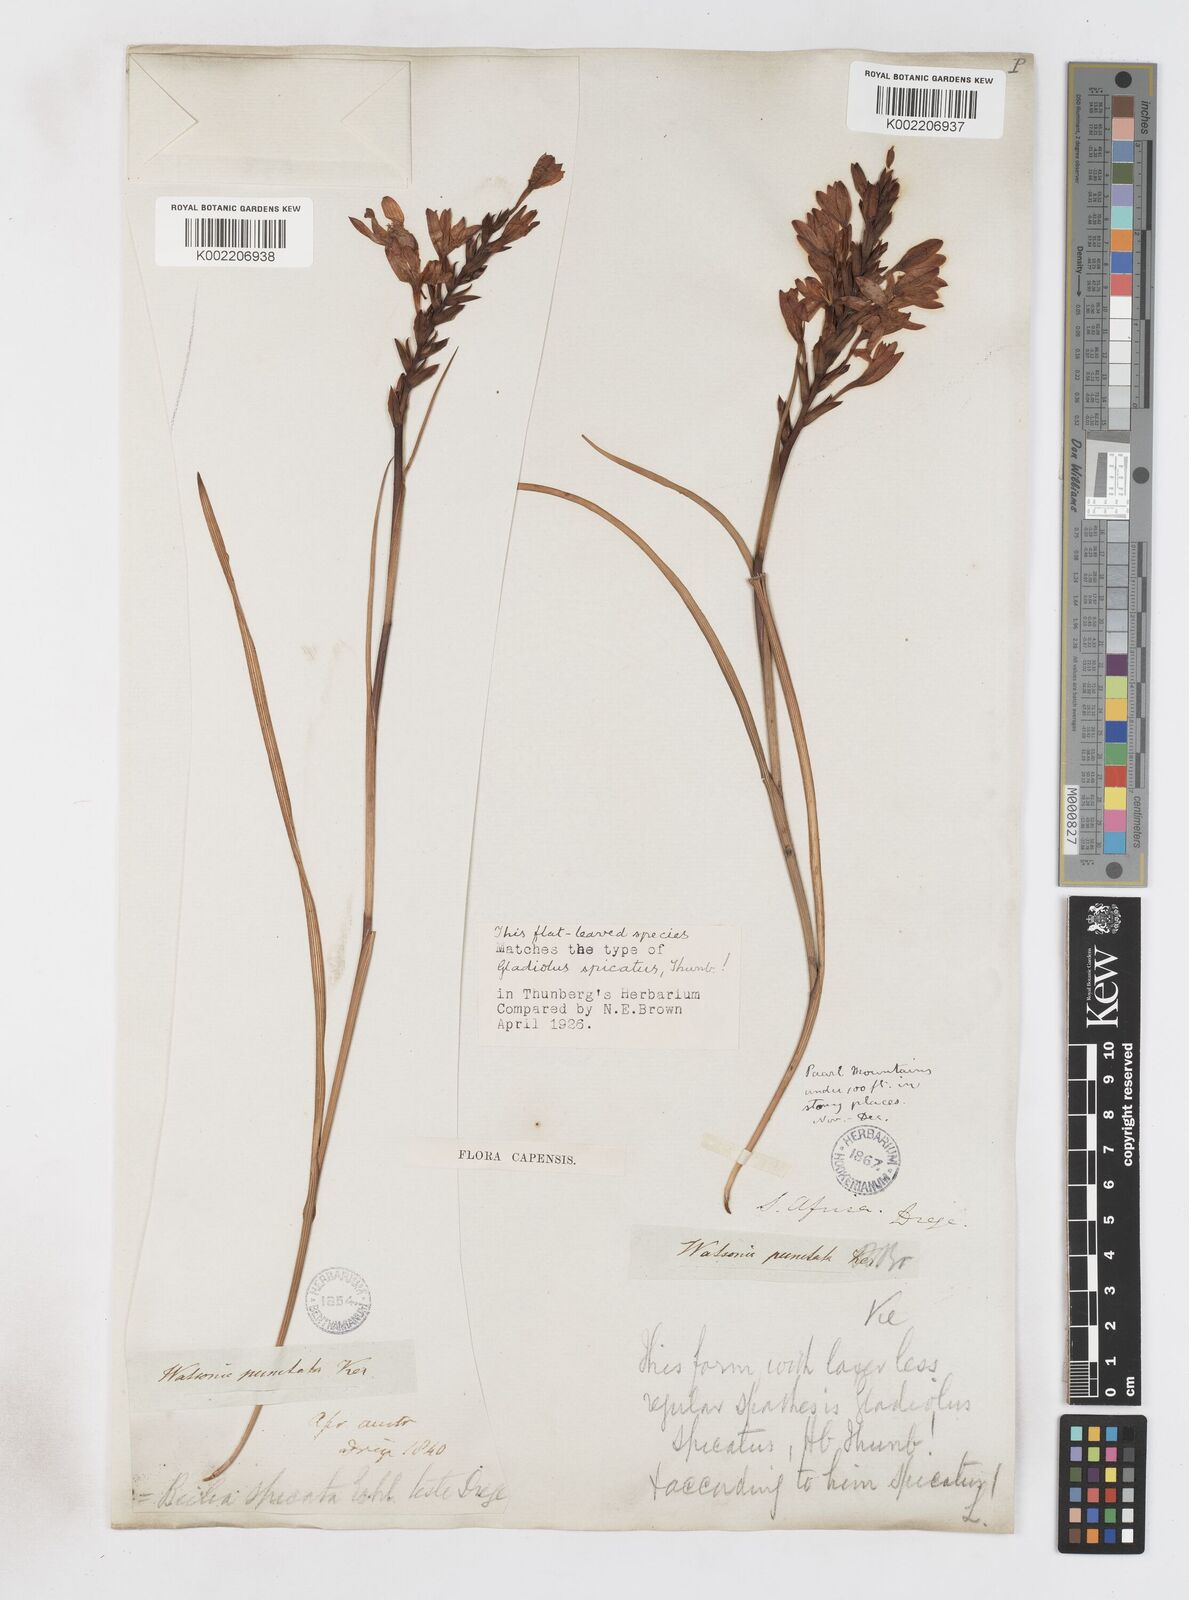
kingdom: Plantae
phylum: Tracheophyta
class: Liliopsida
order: Asparagales
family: Iridaceae
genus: Thereianthus
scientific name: Thereianthus spicatus
